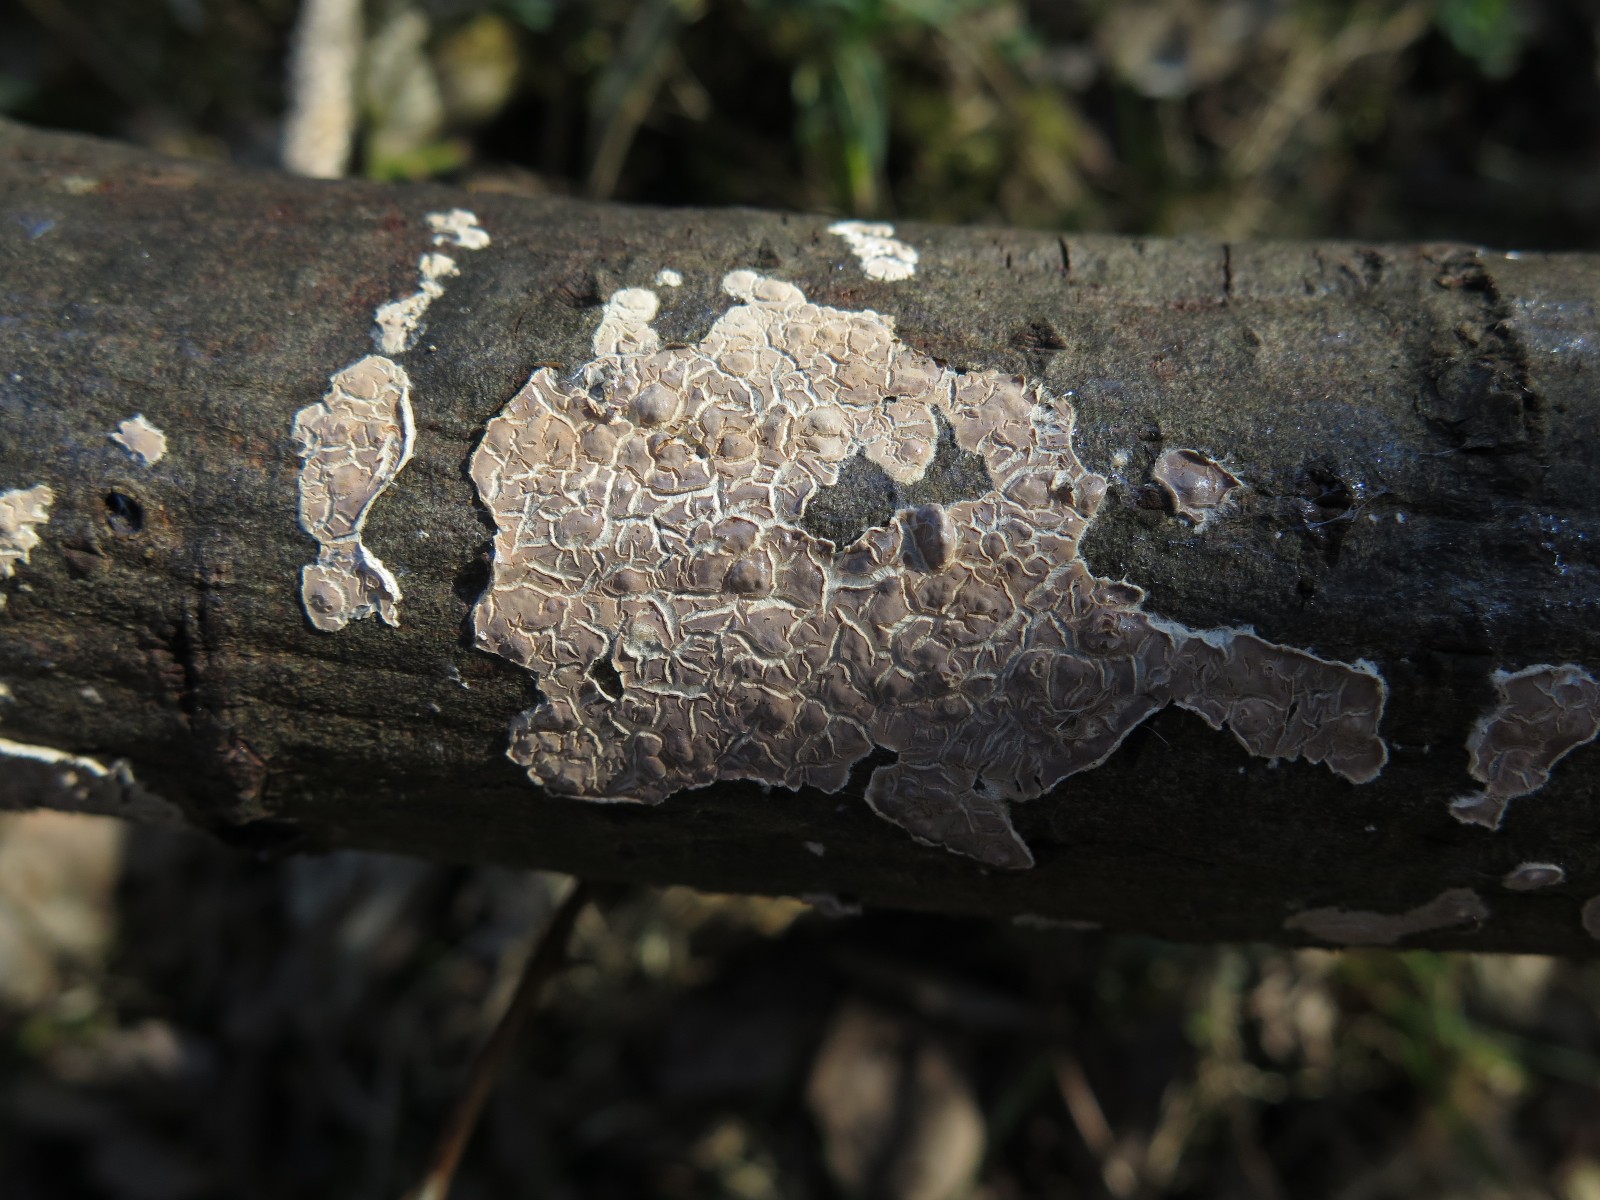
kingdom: Fungi
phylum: Basidiomycota
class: Agaricomycetes
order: Agaricales
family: Physalacriaceae
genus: Cylindrobasidium
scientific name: Cylindrobasidium evolvens
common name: sprækkehinde
